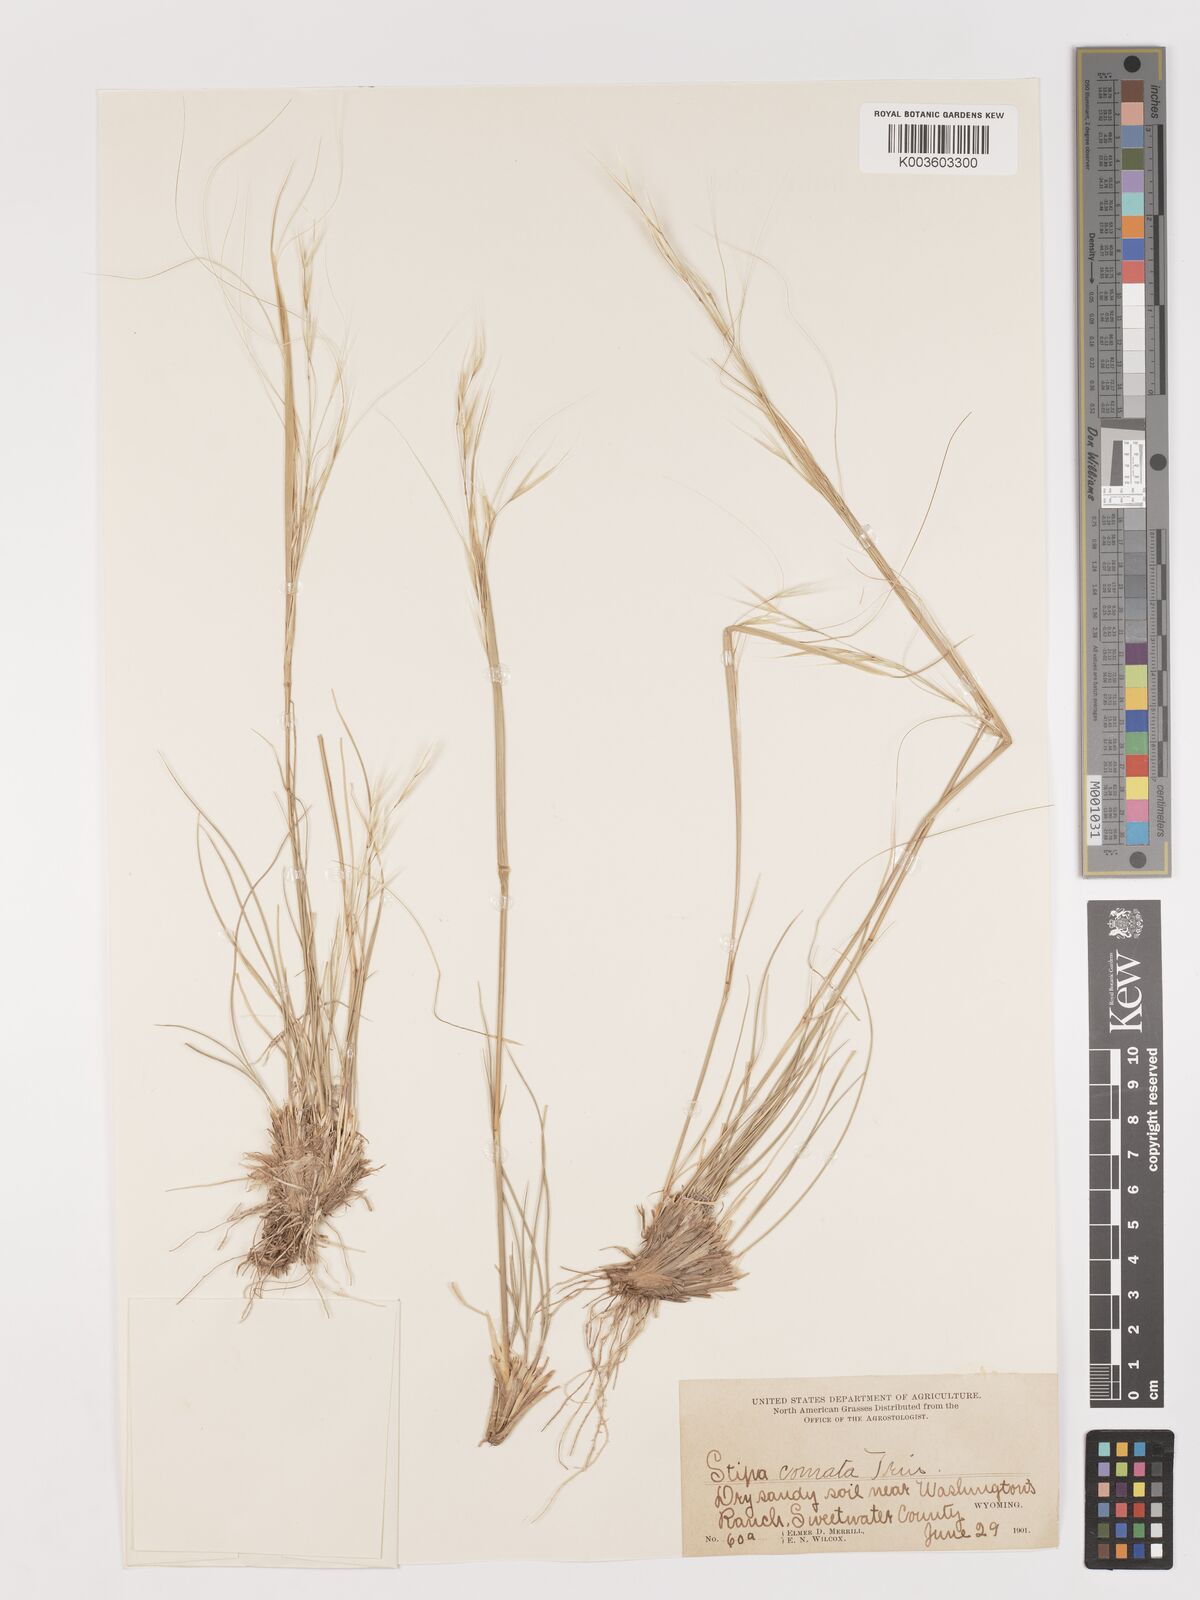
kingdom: Plantae
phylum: Tracheophyta
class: Liliopsida
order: Poales
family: Poaceae
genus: Stipa
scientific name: Stipa
